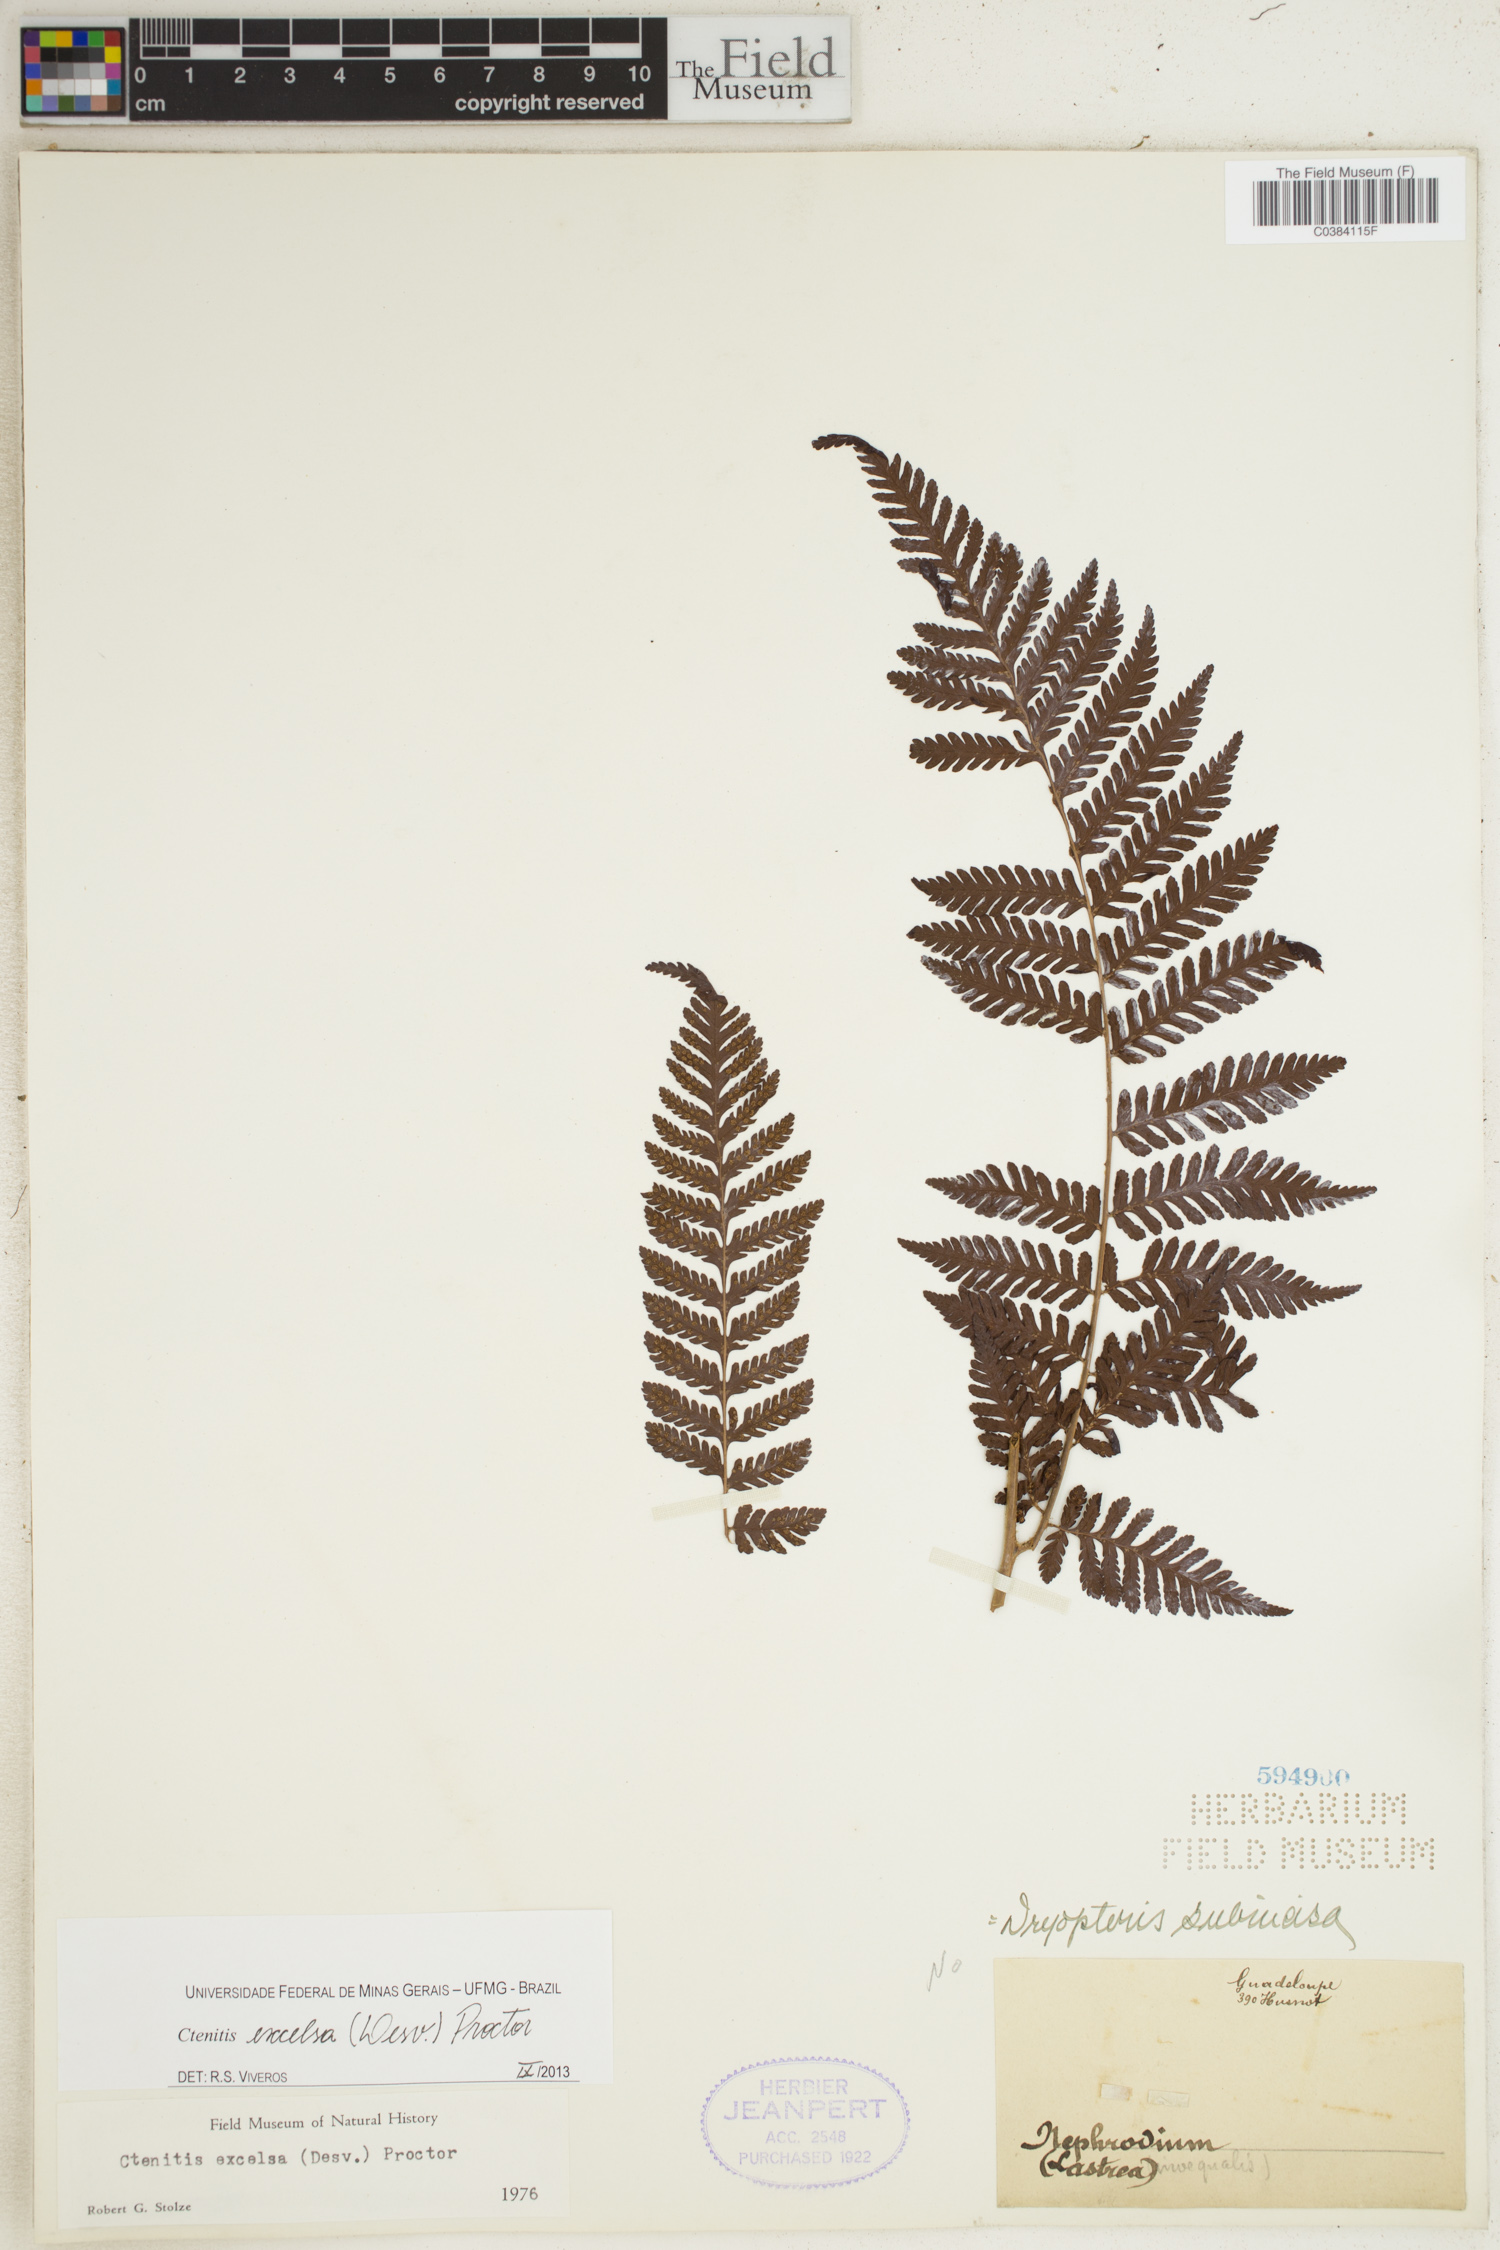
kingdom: Plantae
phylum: Tracheophyta
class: Polypodiopsida
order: Polypodiales
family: Dryopteridaceae
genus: Ctenitis
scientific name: Ctenitis excelsa
